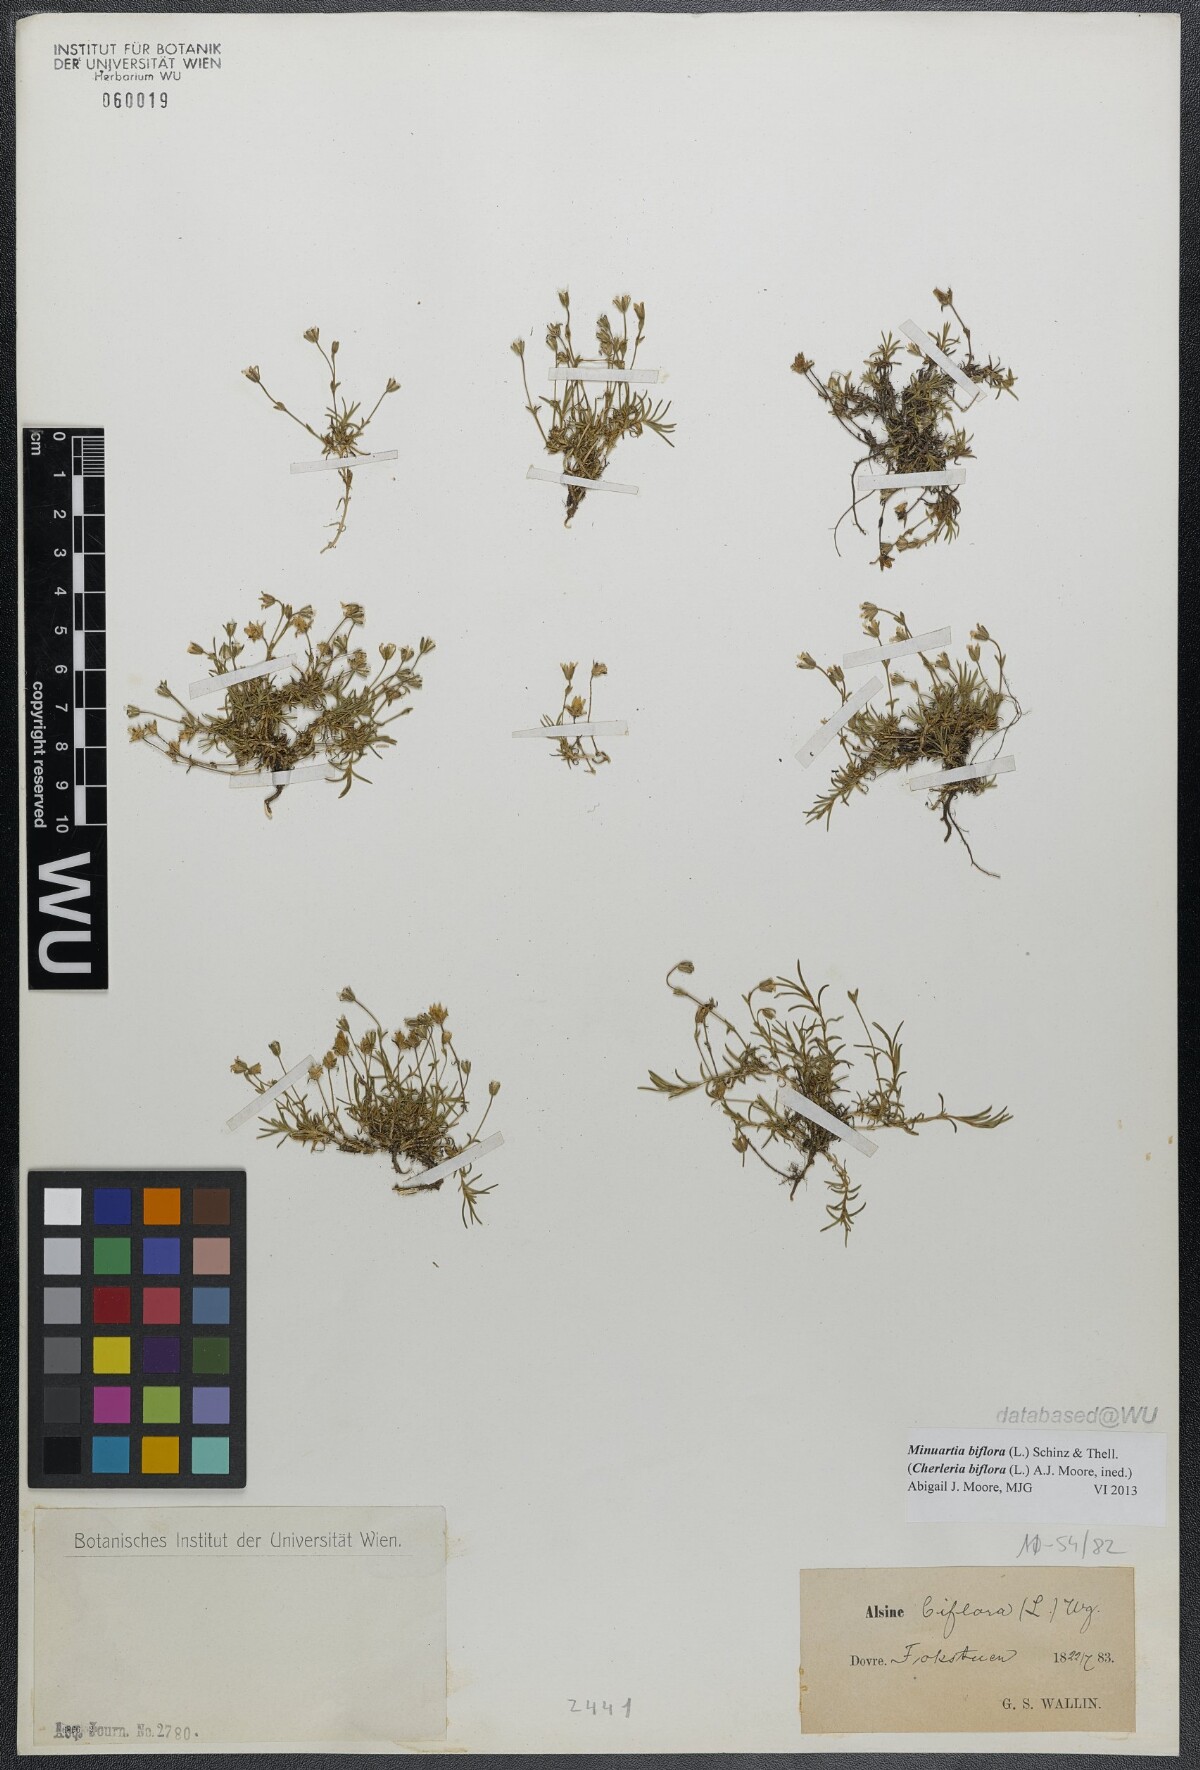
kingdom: Plantae
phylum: Tracheophyta
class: Magnoliopsida
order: Caryophyllales
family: Caryophyllaceae
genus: Cherleria
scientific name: Cherleria biflora
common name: Mountain sandwort
